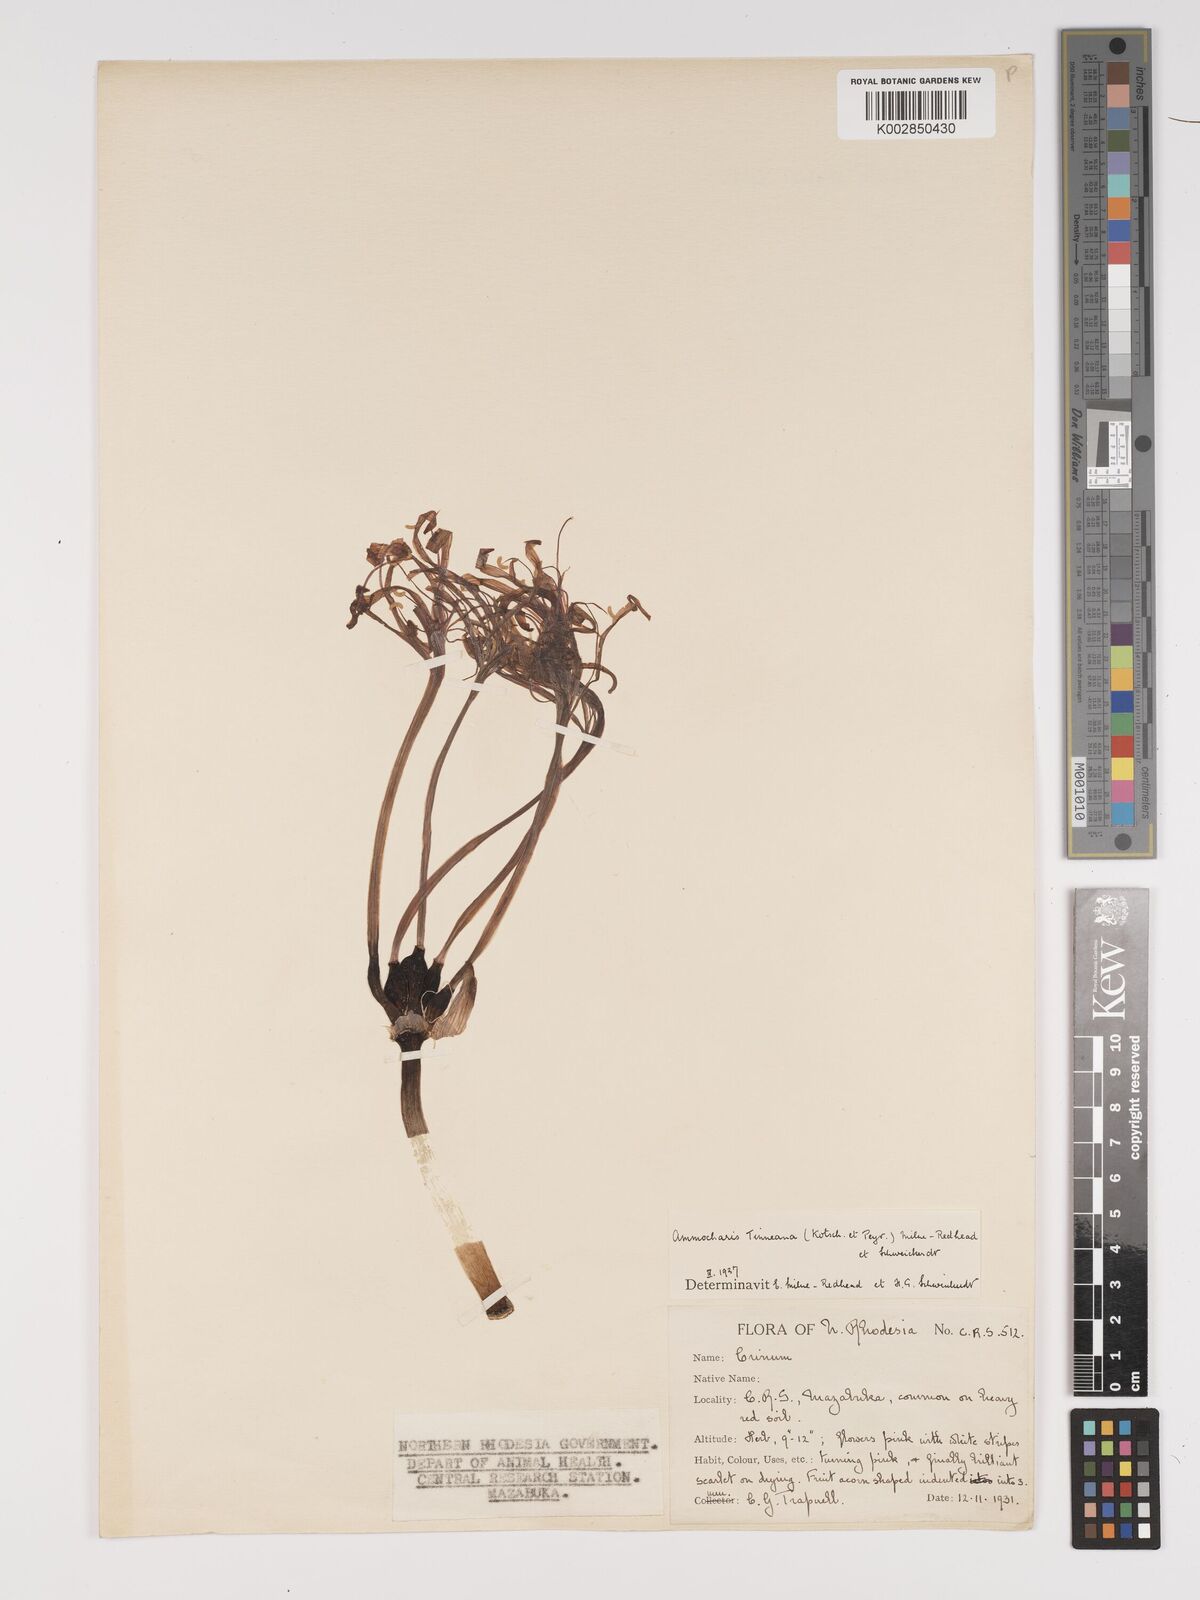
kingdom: Plantae
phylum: Tracheophyta
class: Liliopsida
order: Asparagales
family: Amaryllidaceae
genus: Ammocharis
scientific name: Ammocharis tinneana
